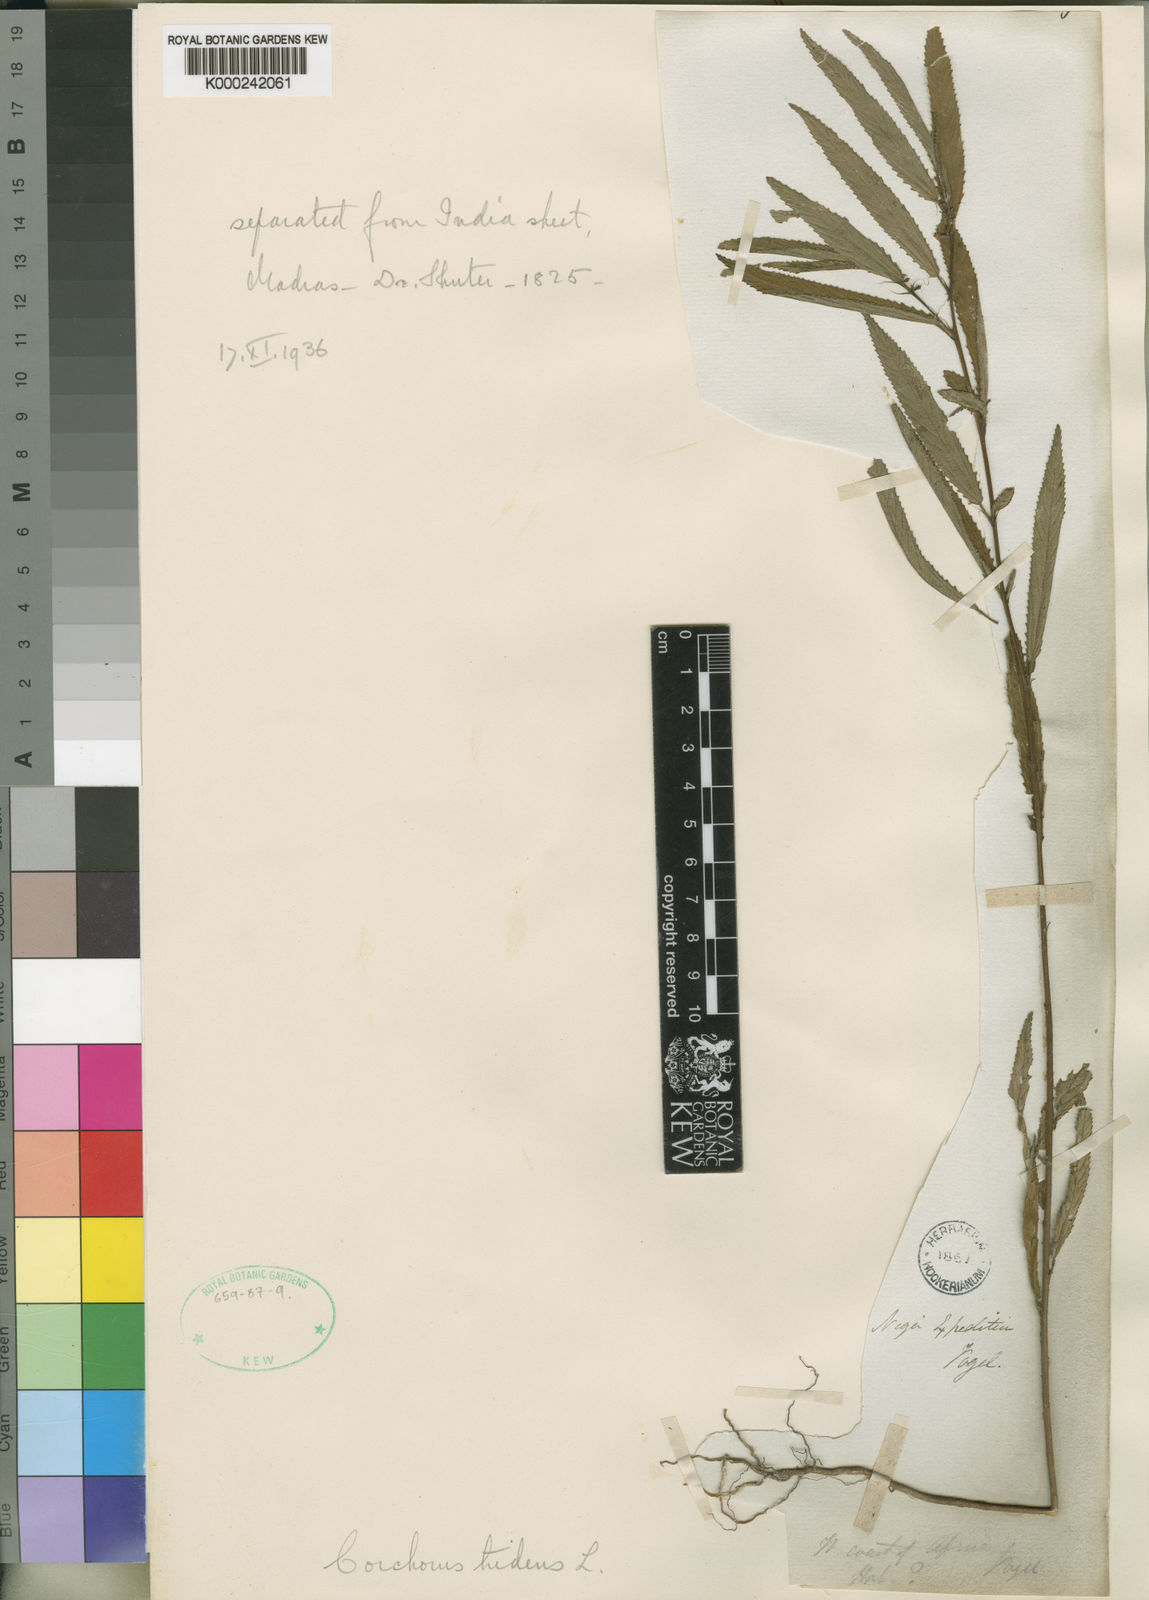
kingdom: Plantae
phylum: Tracheophyta
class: Magnoliopsida
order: Malvales
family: Malvaceae
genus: Corchorus
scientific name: Corchorus tridens
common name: Wild jute
